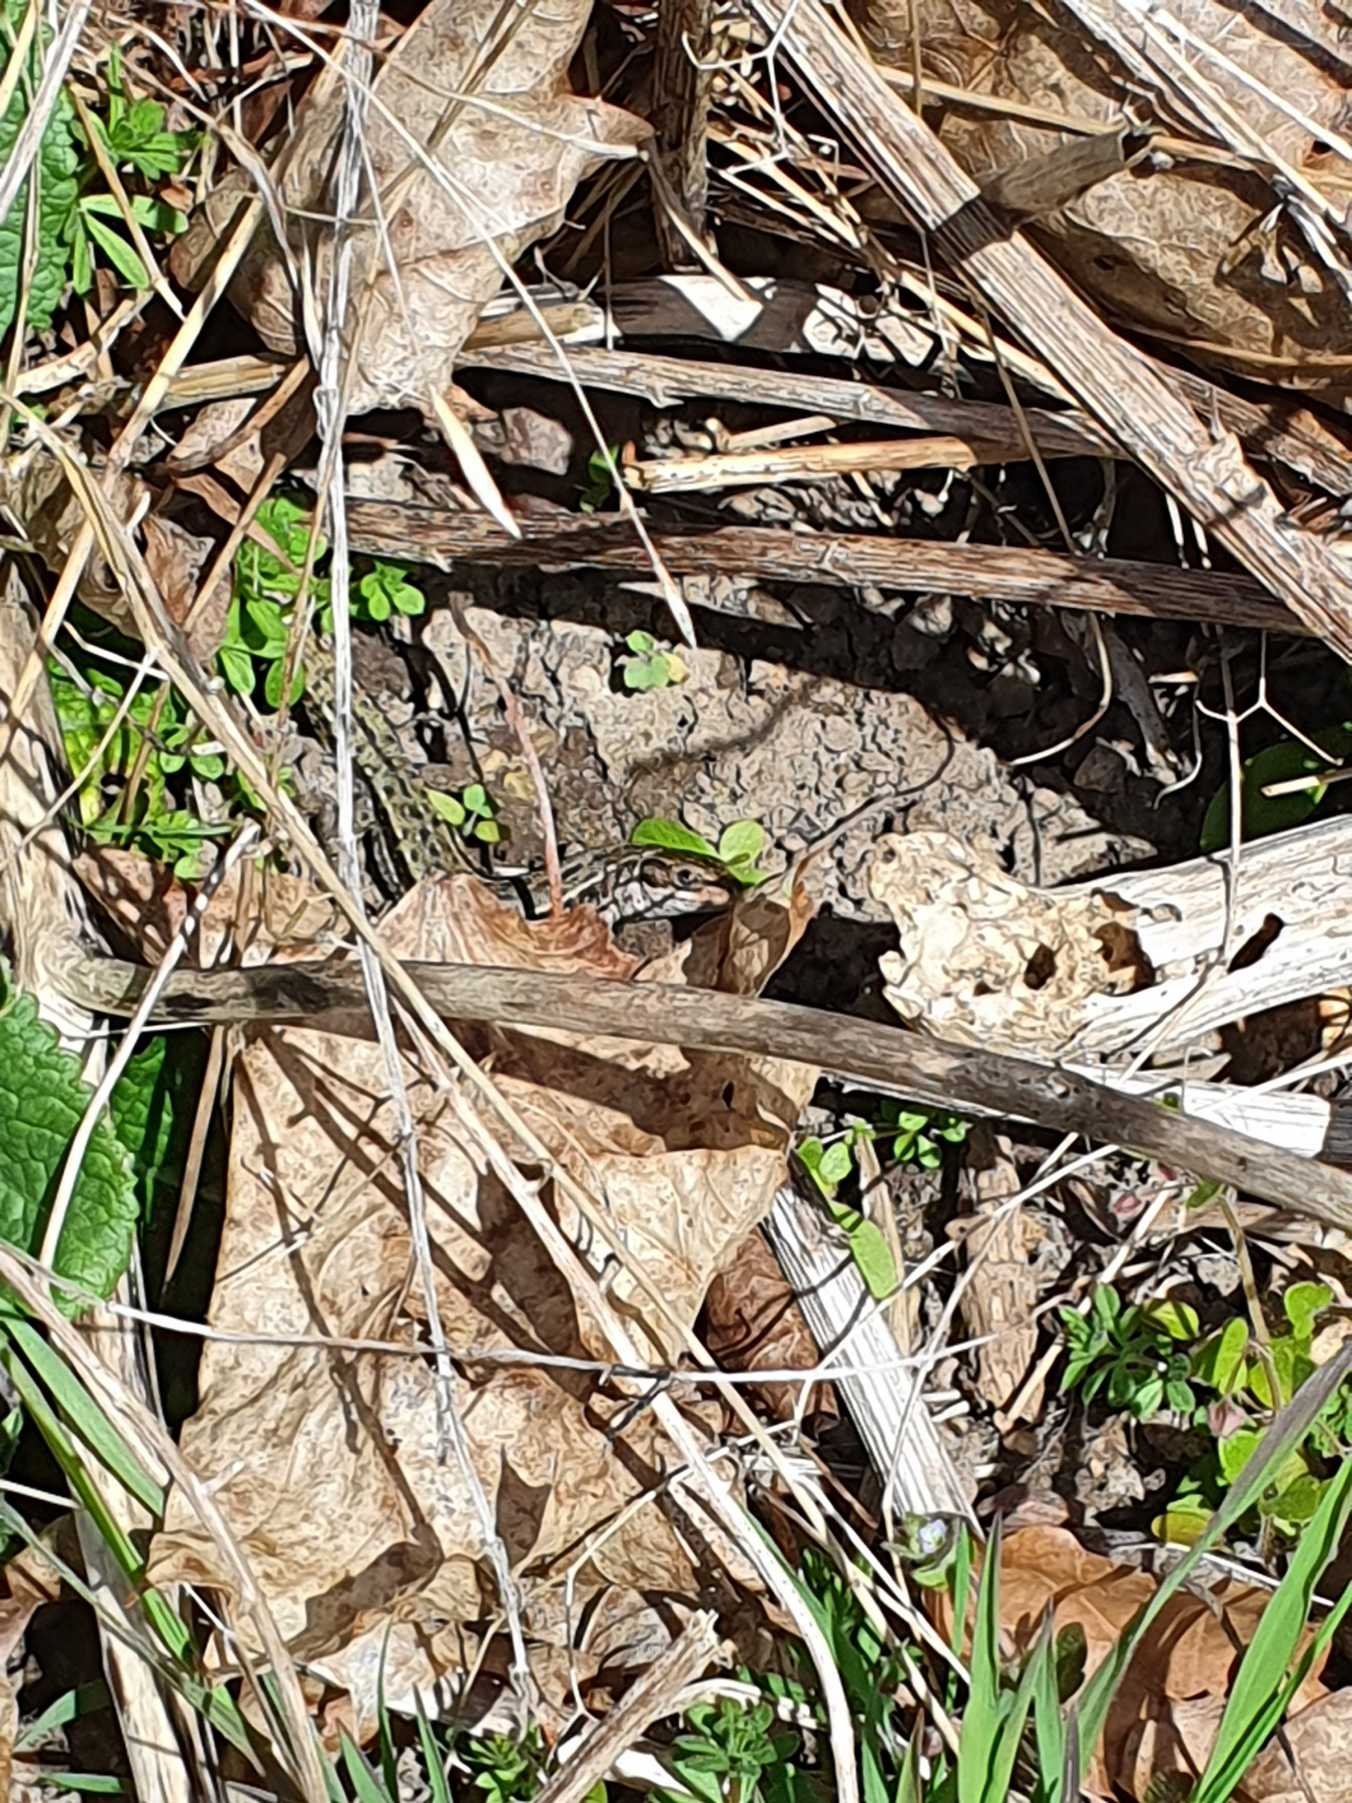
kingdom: Animalia
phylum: Chordata
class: Squamata
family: Lacertidae
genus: Zootoca
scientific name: Zootoca vivipara
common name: Skovfirben
